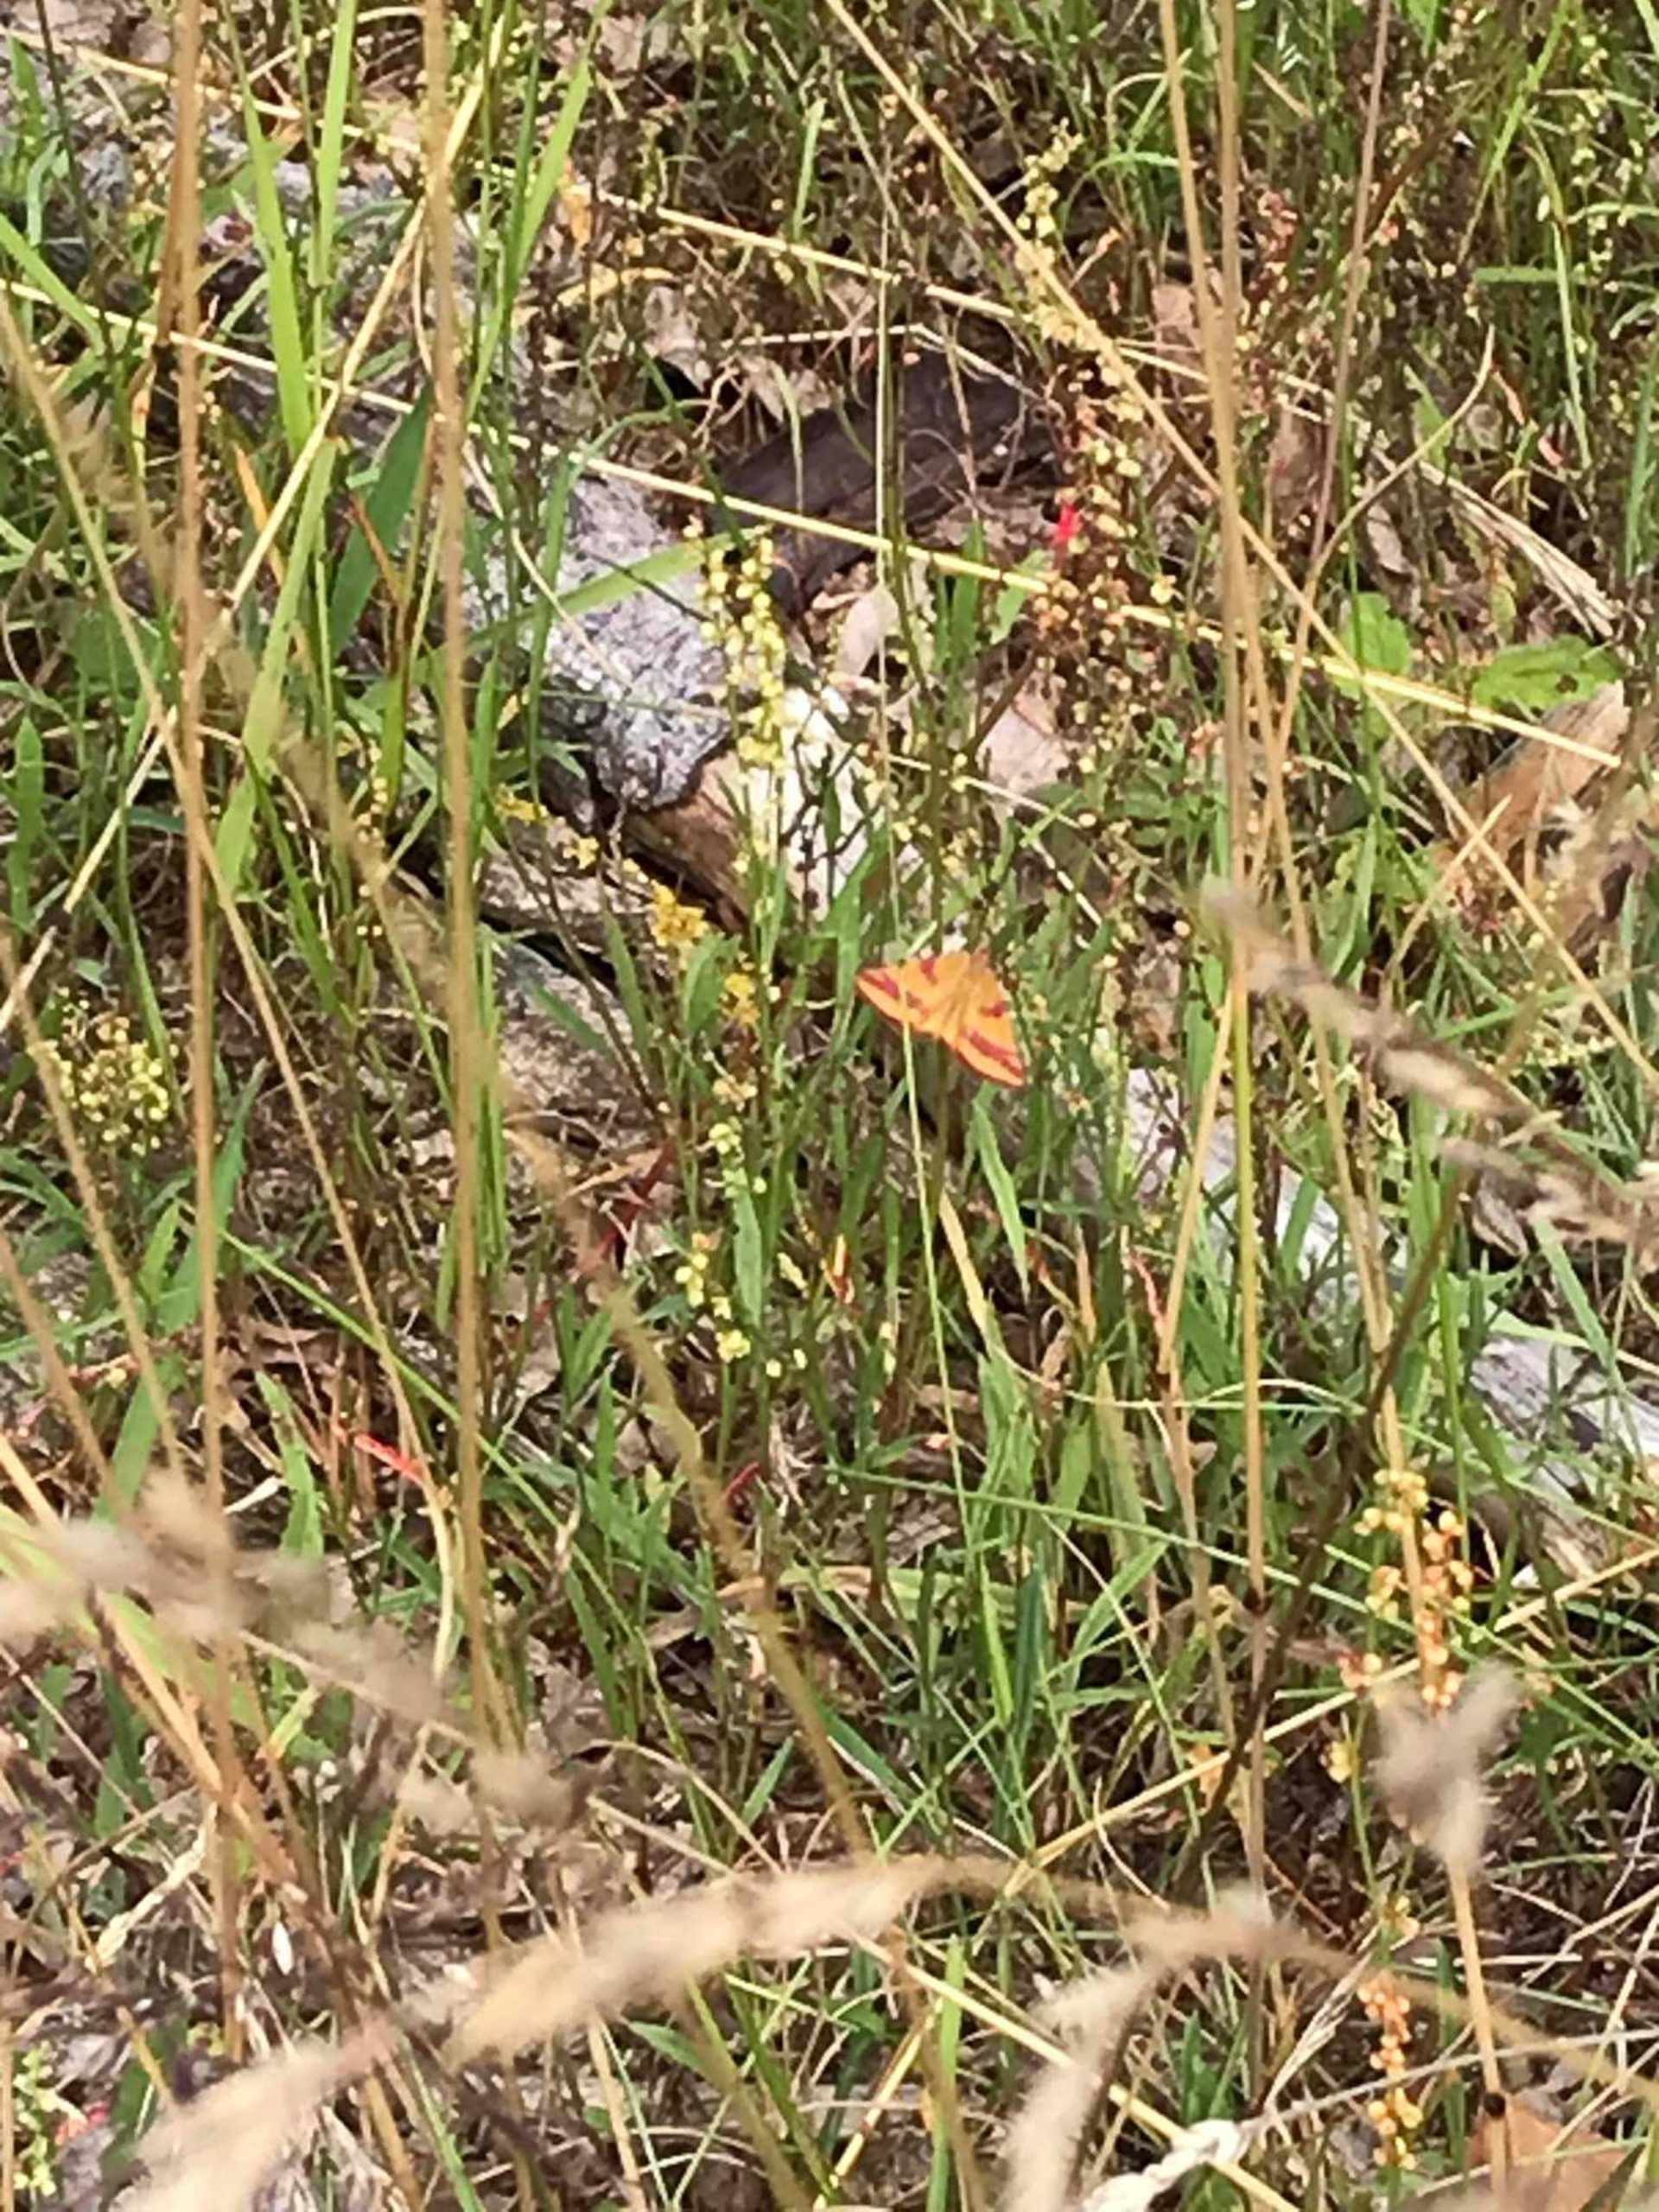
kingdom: Animalia
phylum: Arthropoda
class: Insecta
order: Lepidoptera
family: Geometridae
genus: Lythria
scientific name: Lythria cruentaria
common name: Purpurmåler
